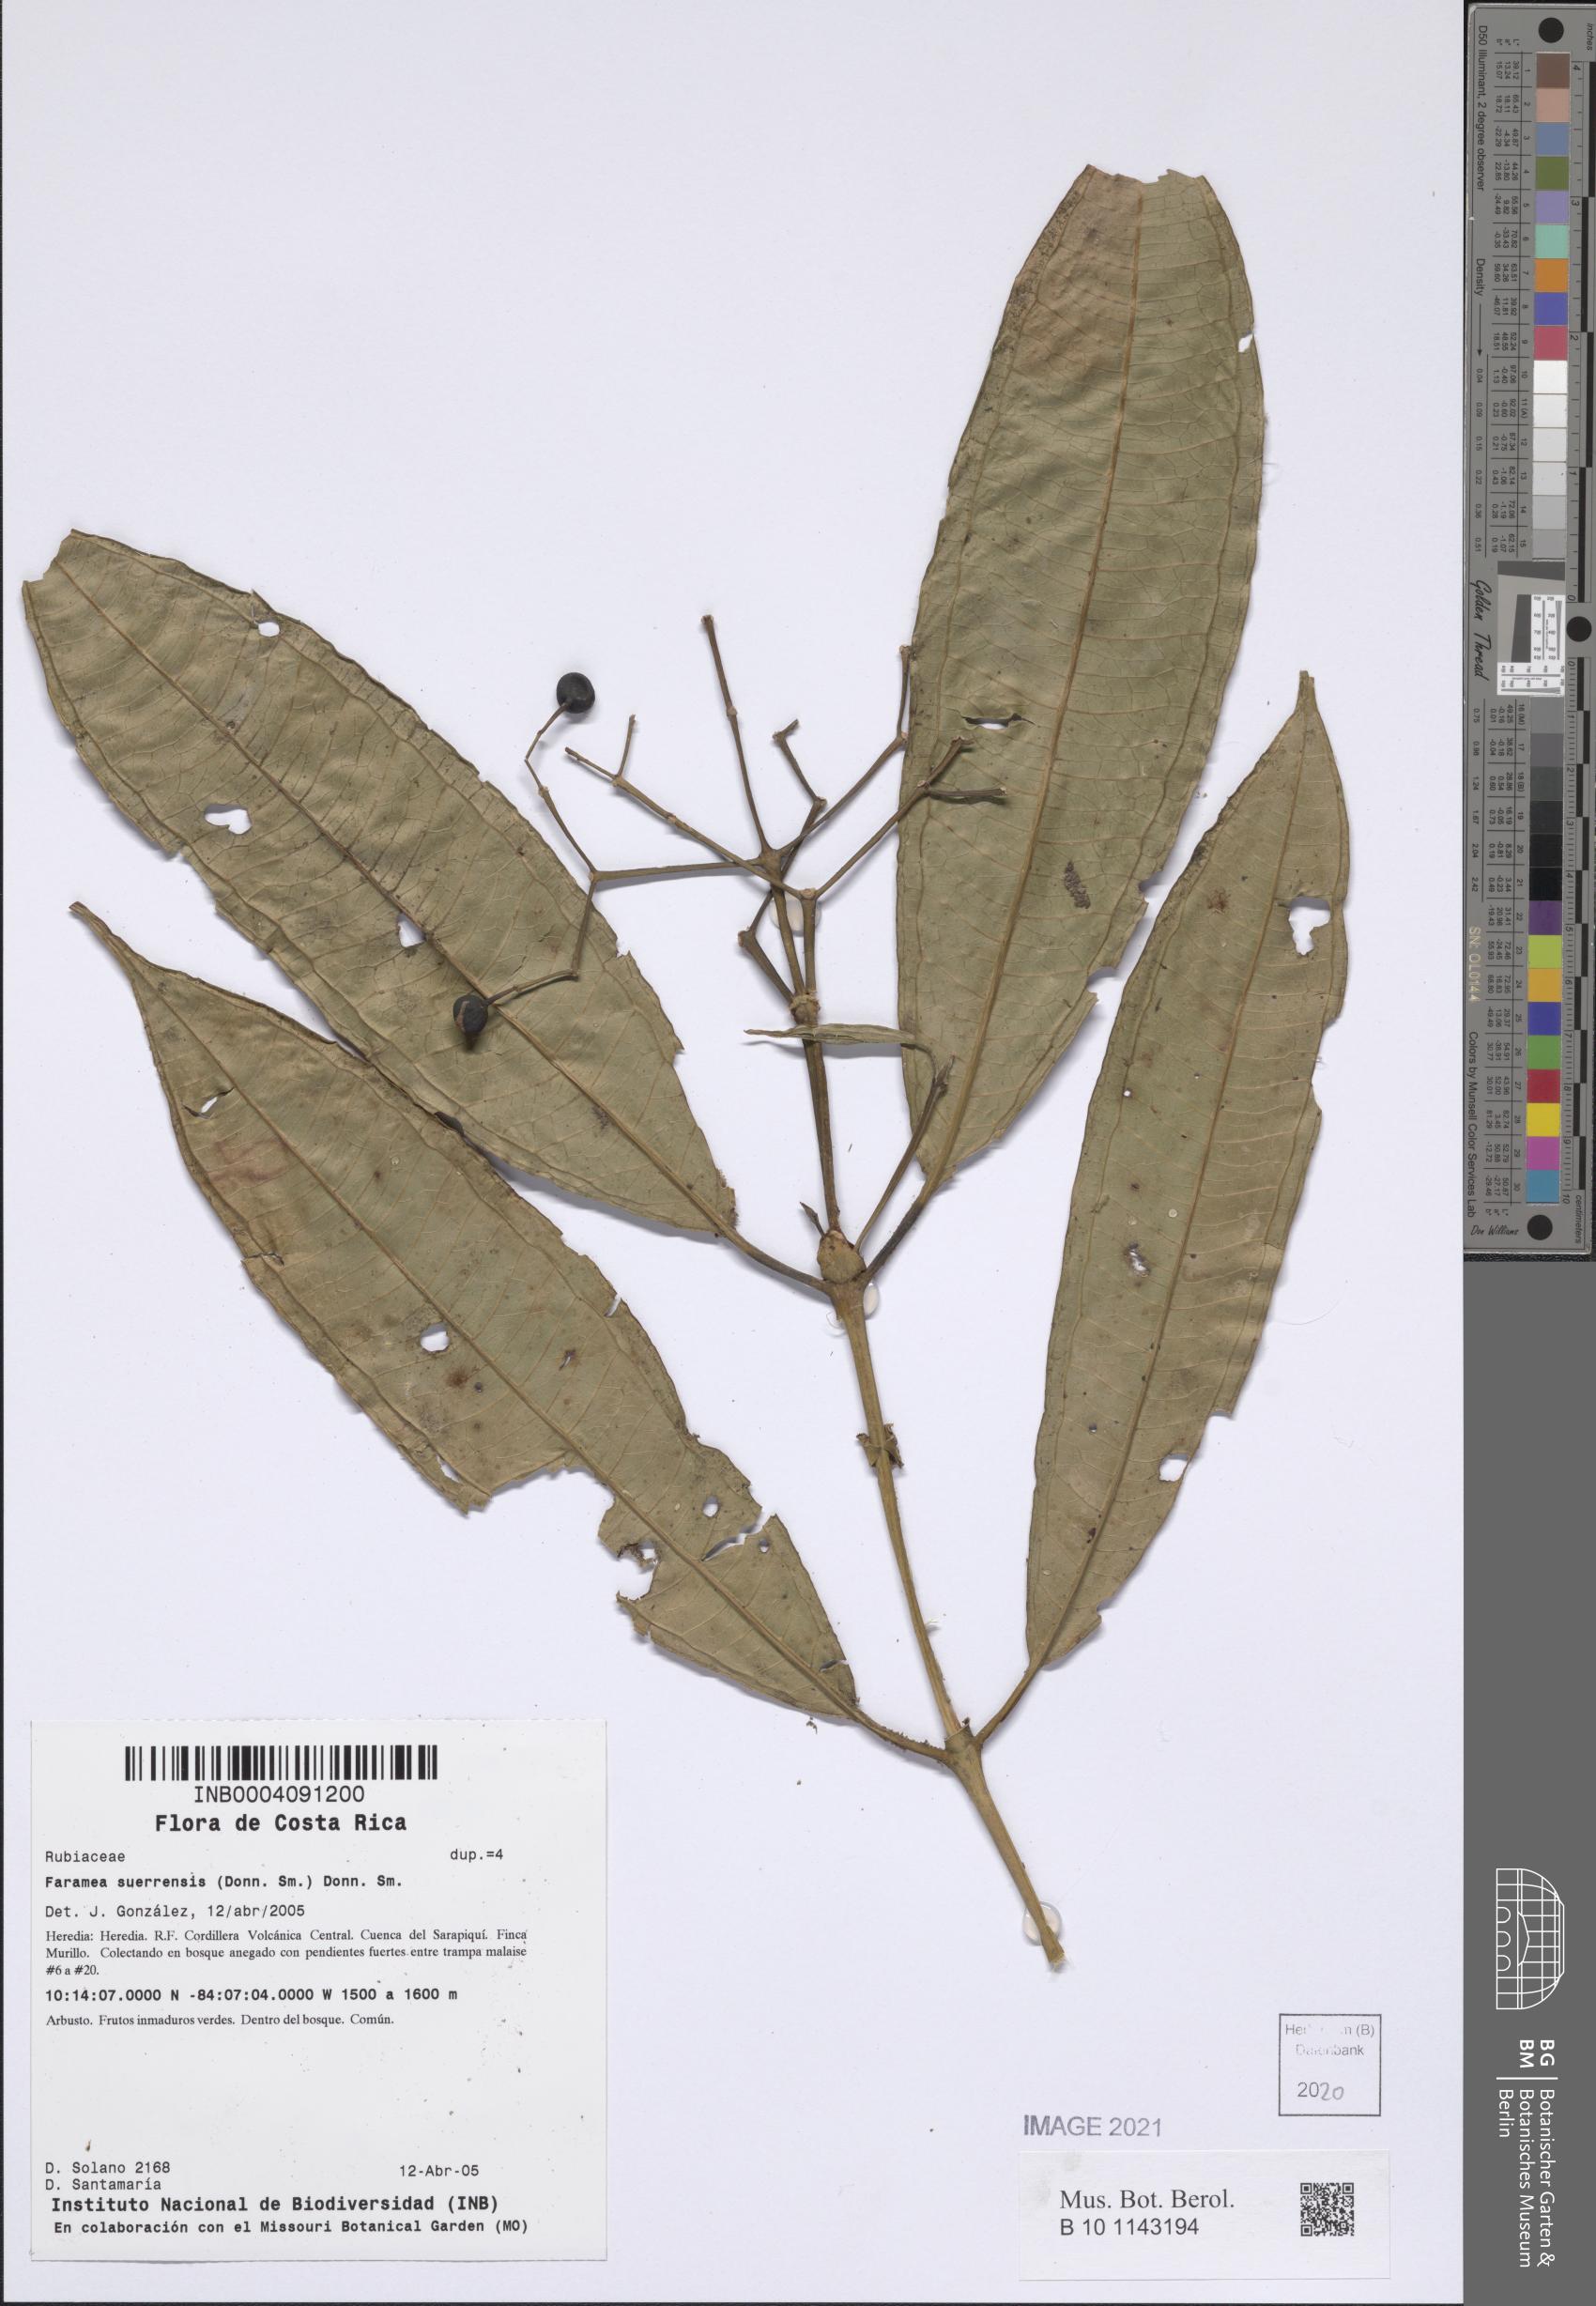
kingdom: Plantae
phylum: Tracheophyta
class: Magnoliopsida
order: Gentianales
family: Rubiaceae
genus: Faramea
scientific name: Faramea suerrensis
